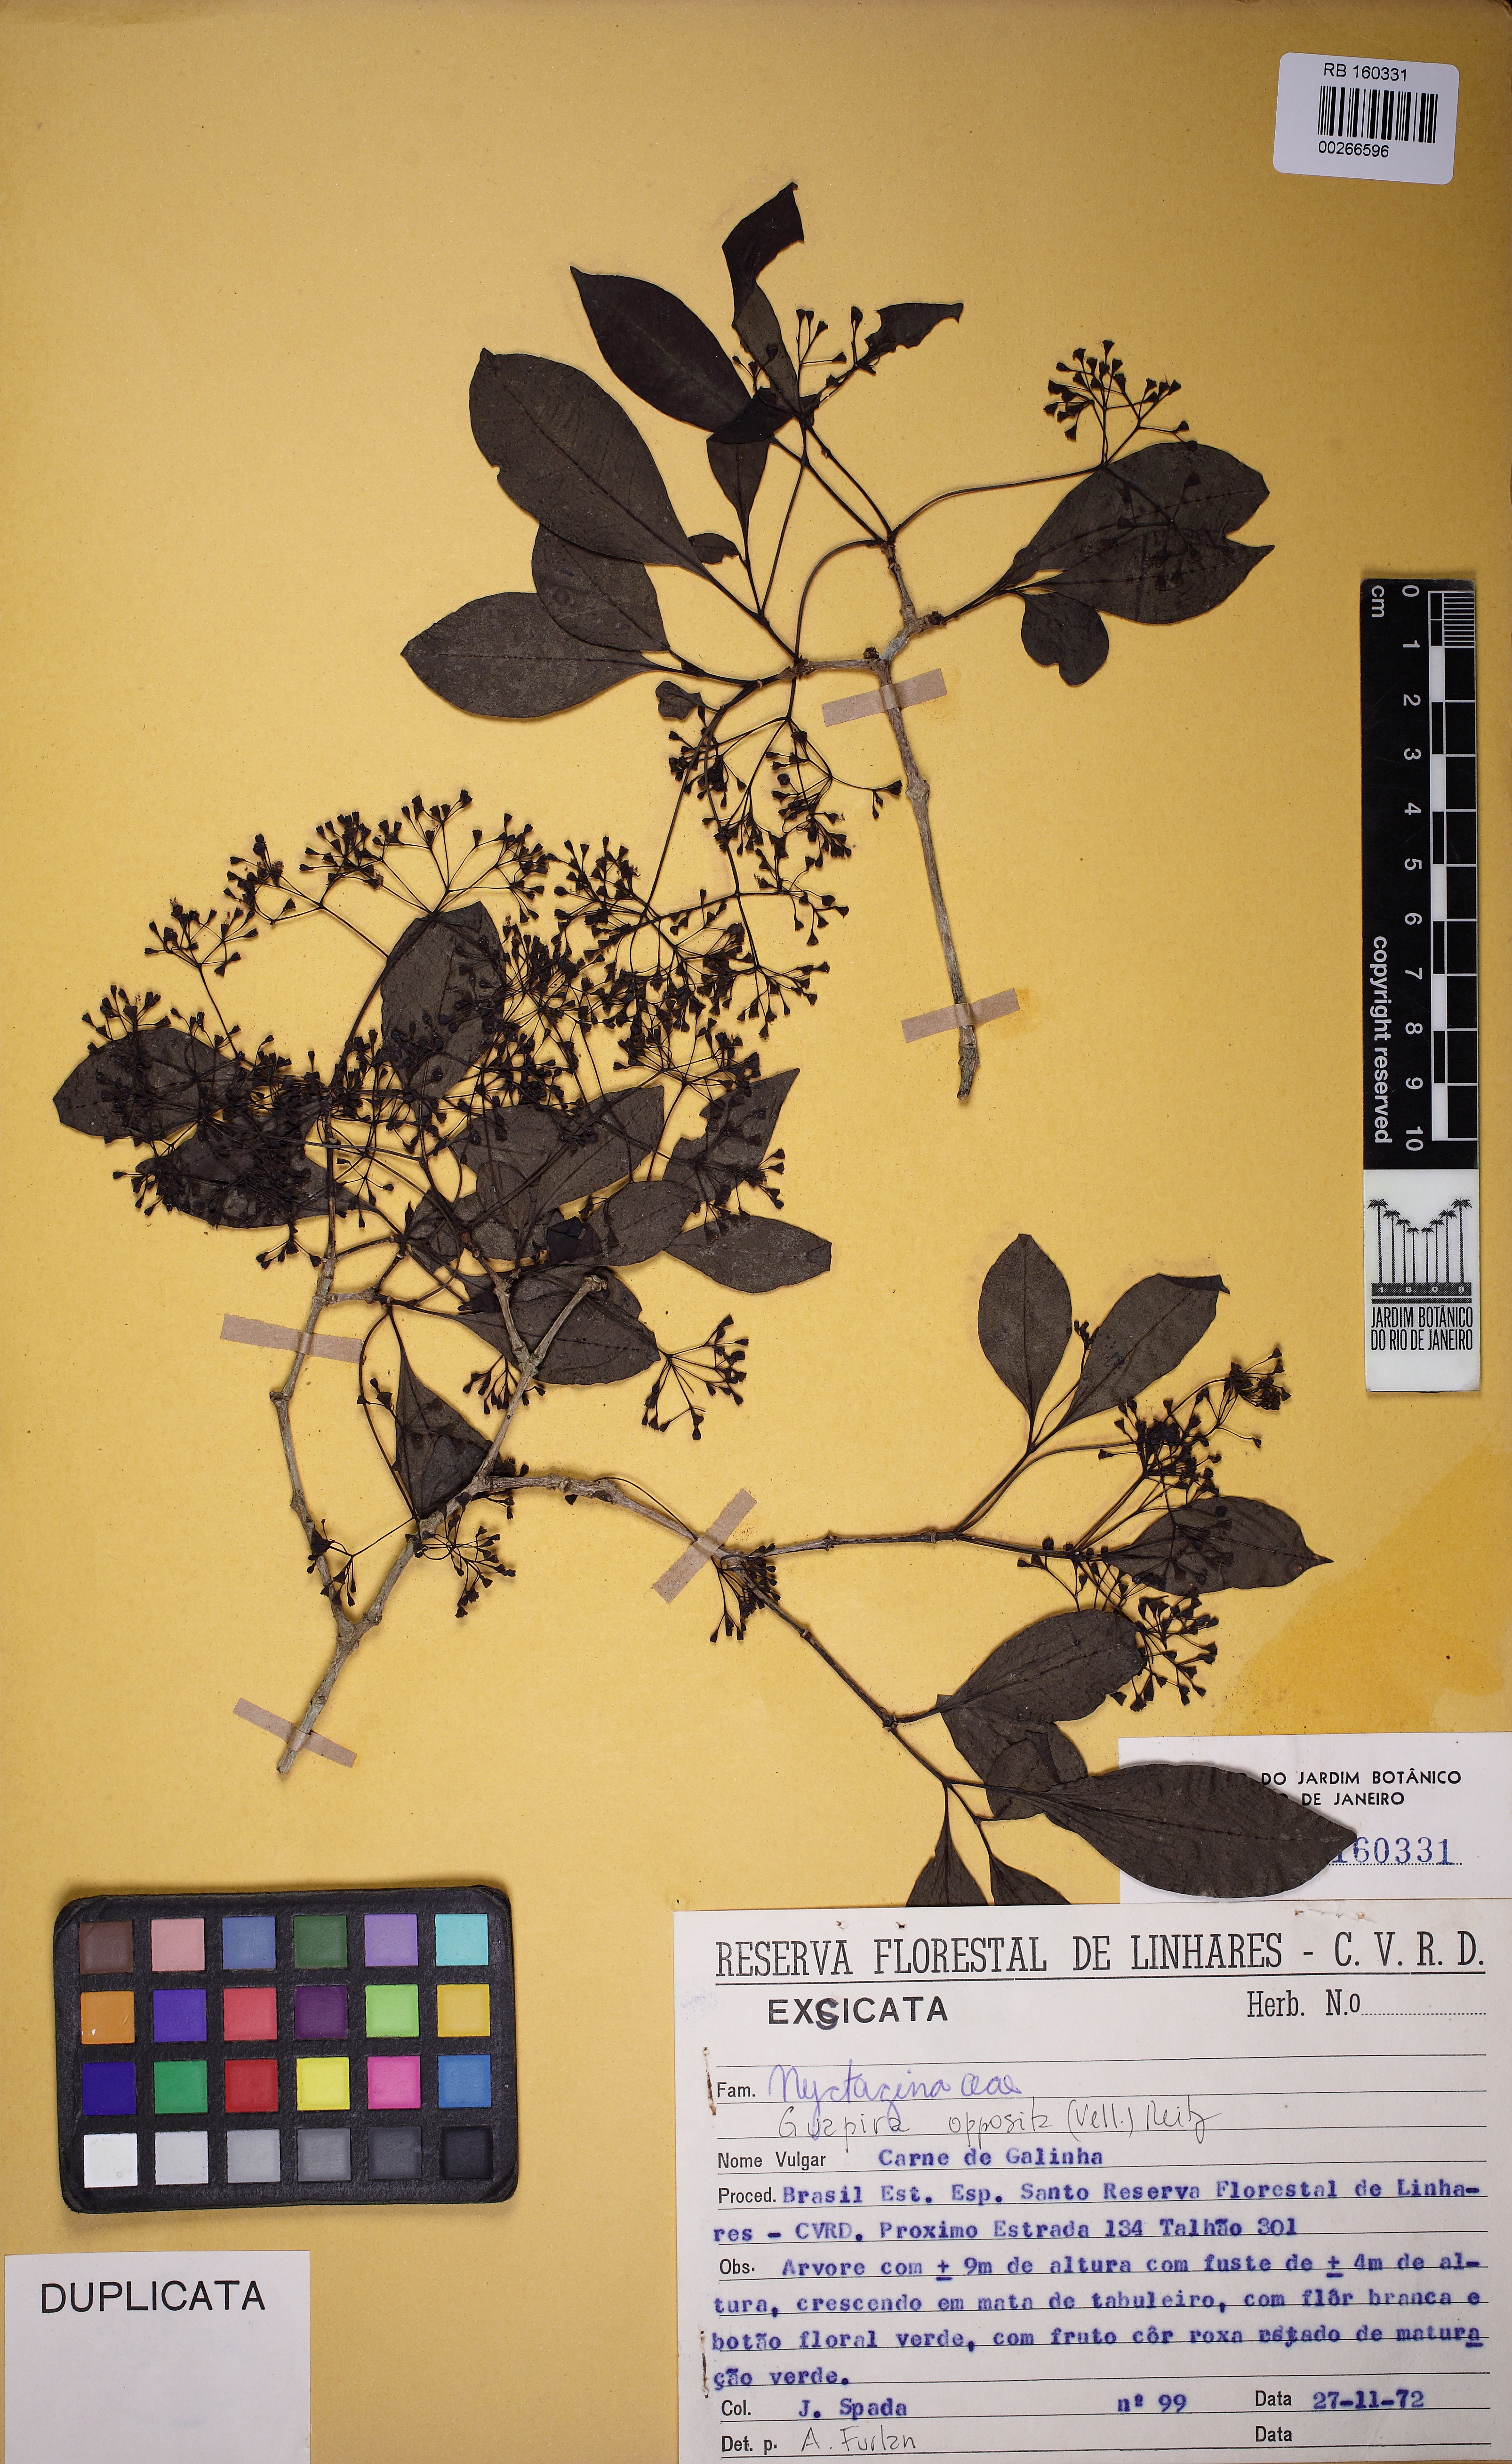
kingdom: Plantae
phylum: Tracheophyta
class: Magnoliopsida
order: Caryophyllales
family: Nyctaginaceae
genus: Guapira
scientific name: Guapira opposita
